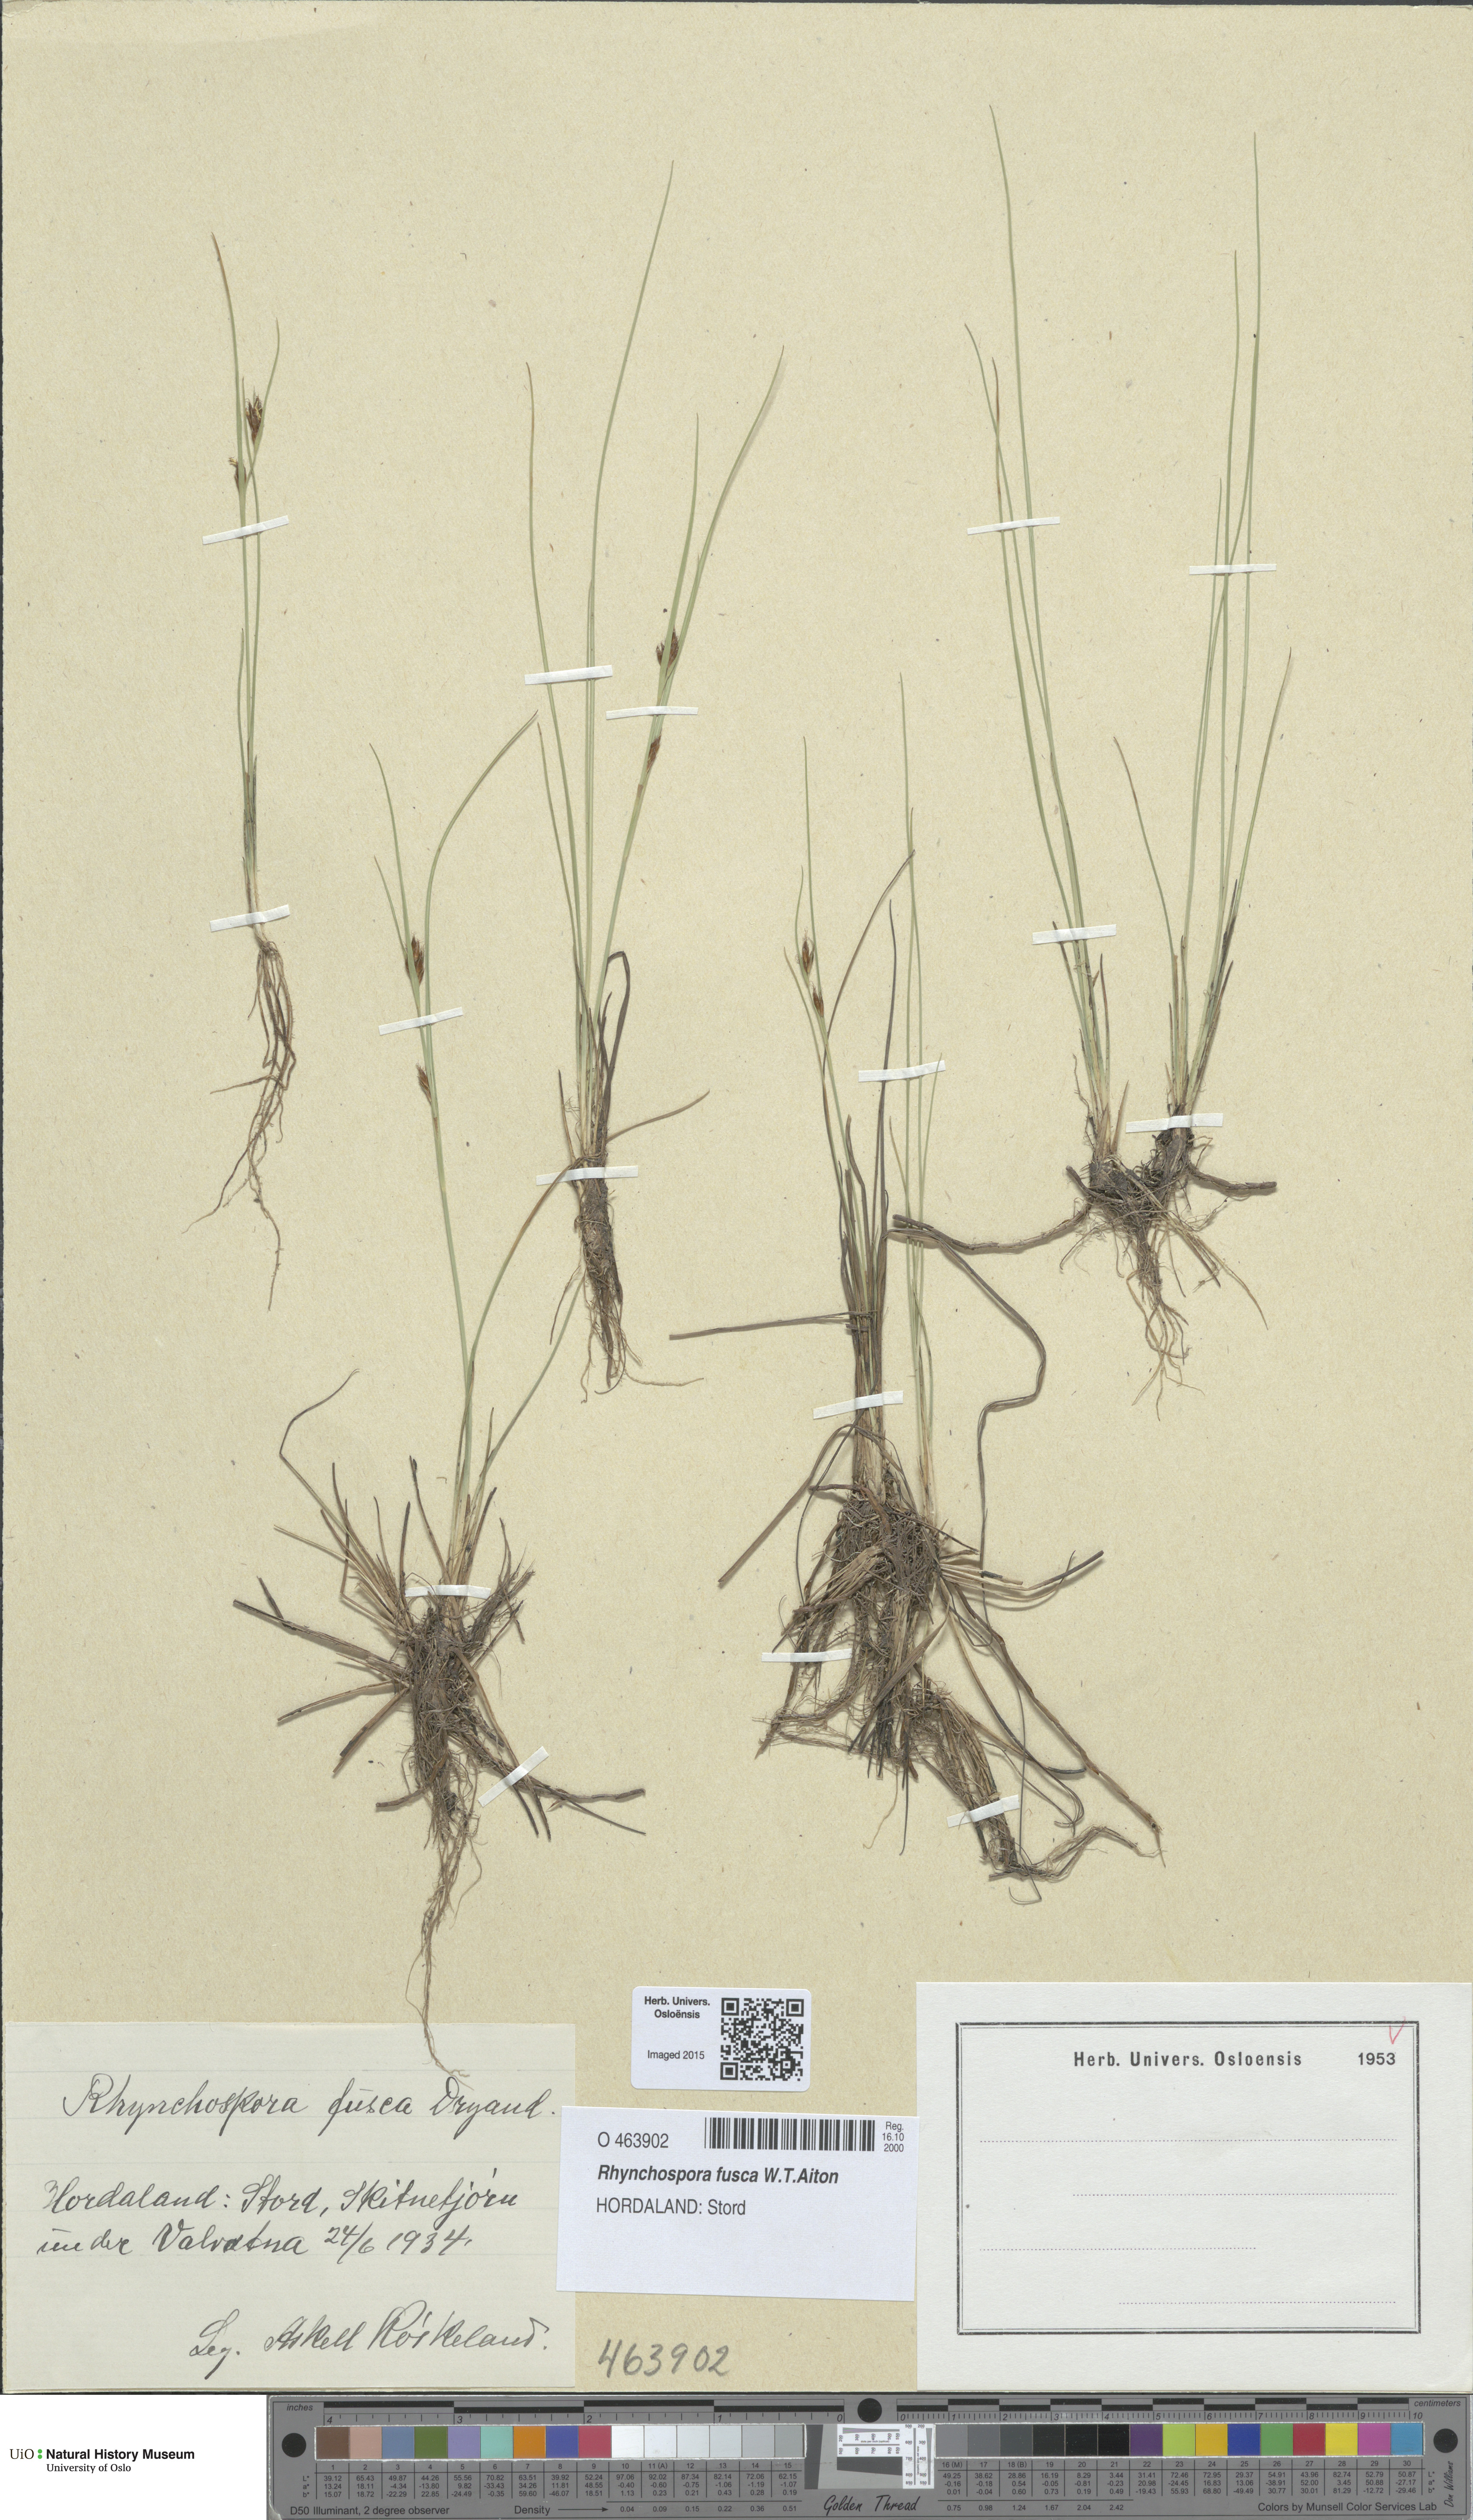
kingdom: Plantae
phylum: Tracheophyta
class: Liliopsida
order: Poales
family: Cyperaceae
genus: Rhynchospora
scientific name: Rhynchospora fusca
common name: Brown beak-sedge
